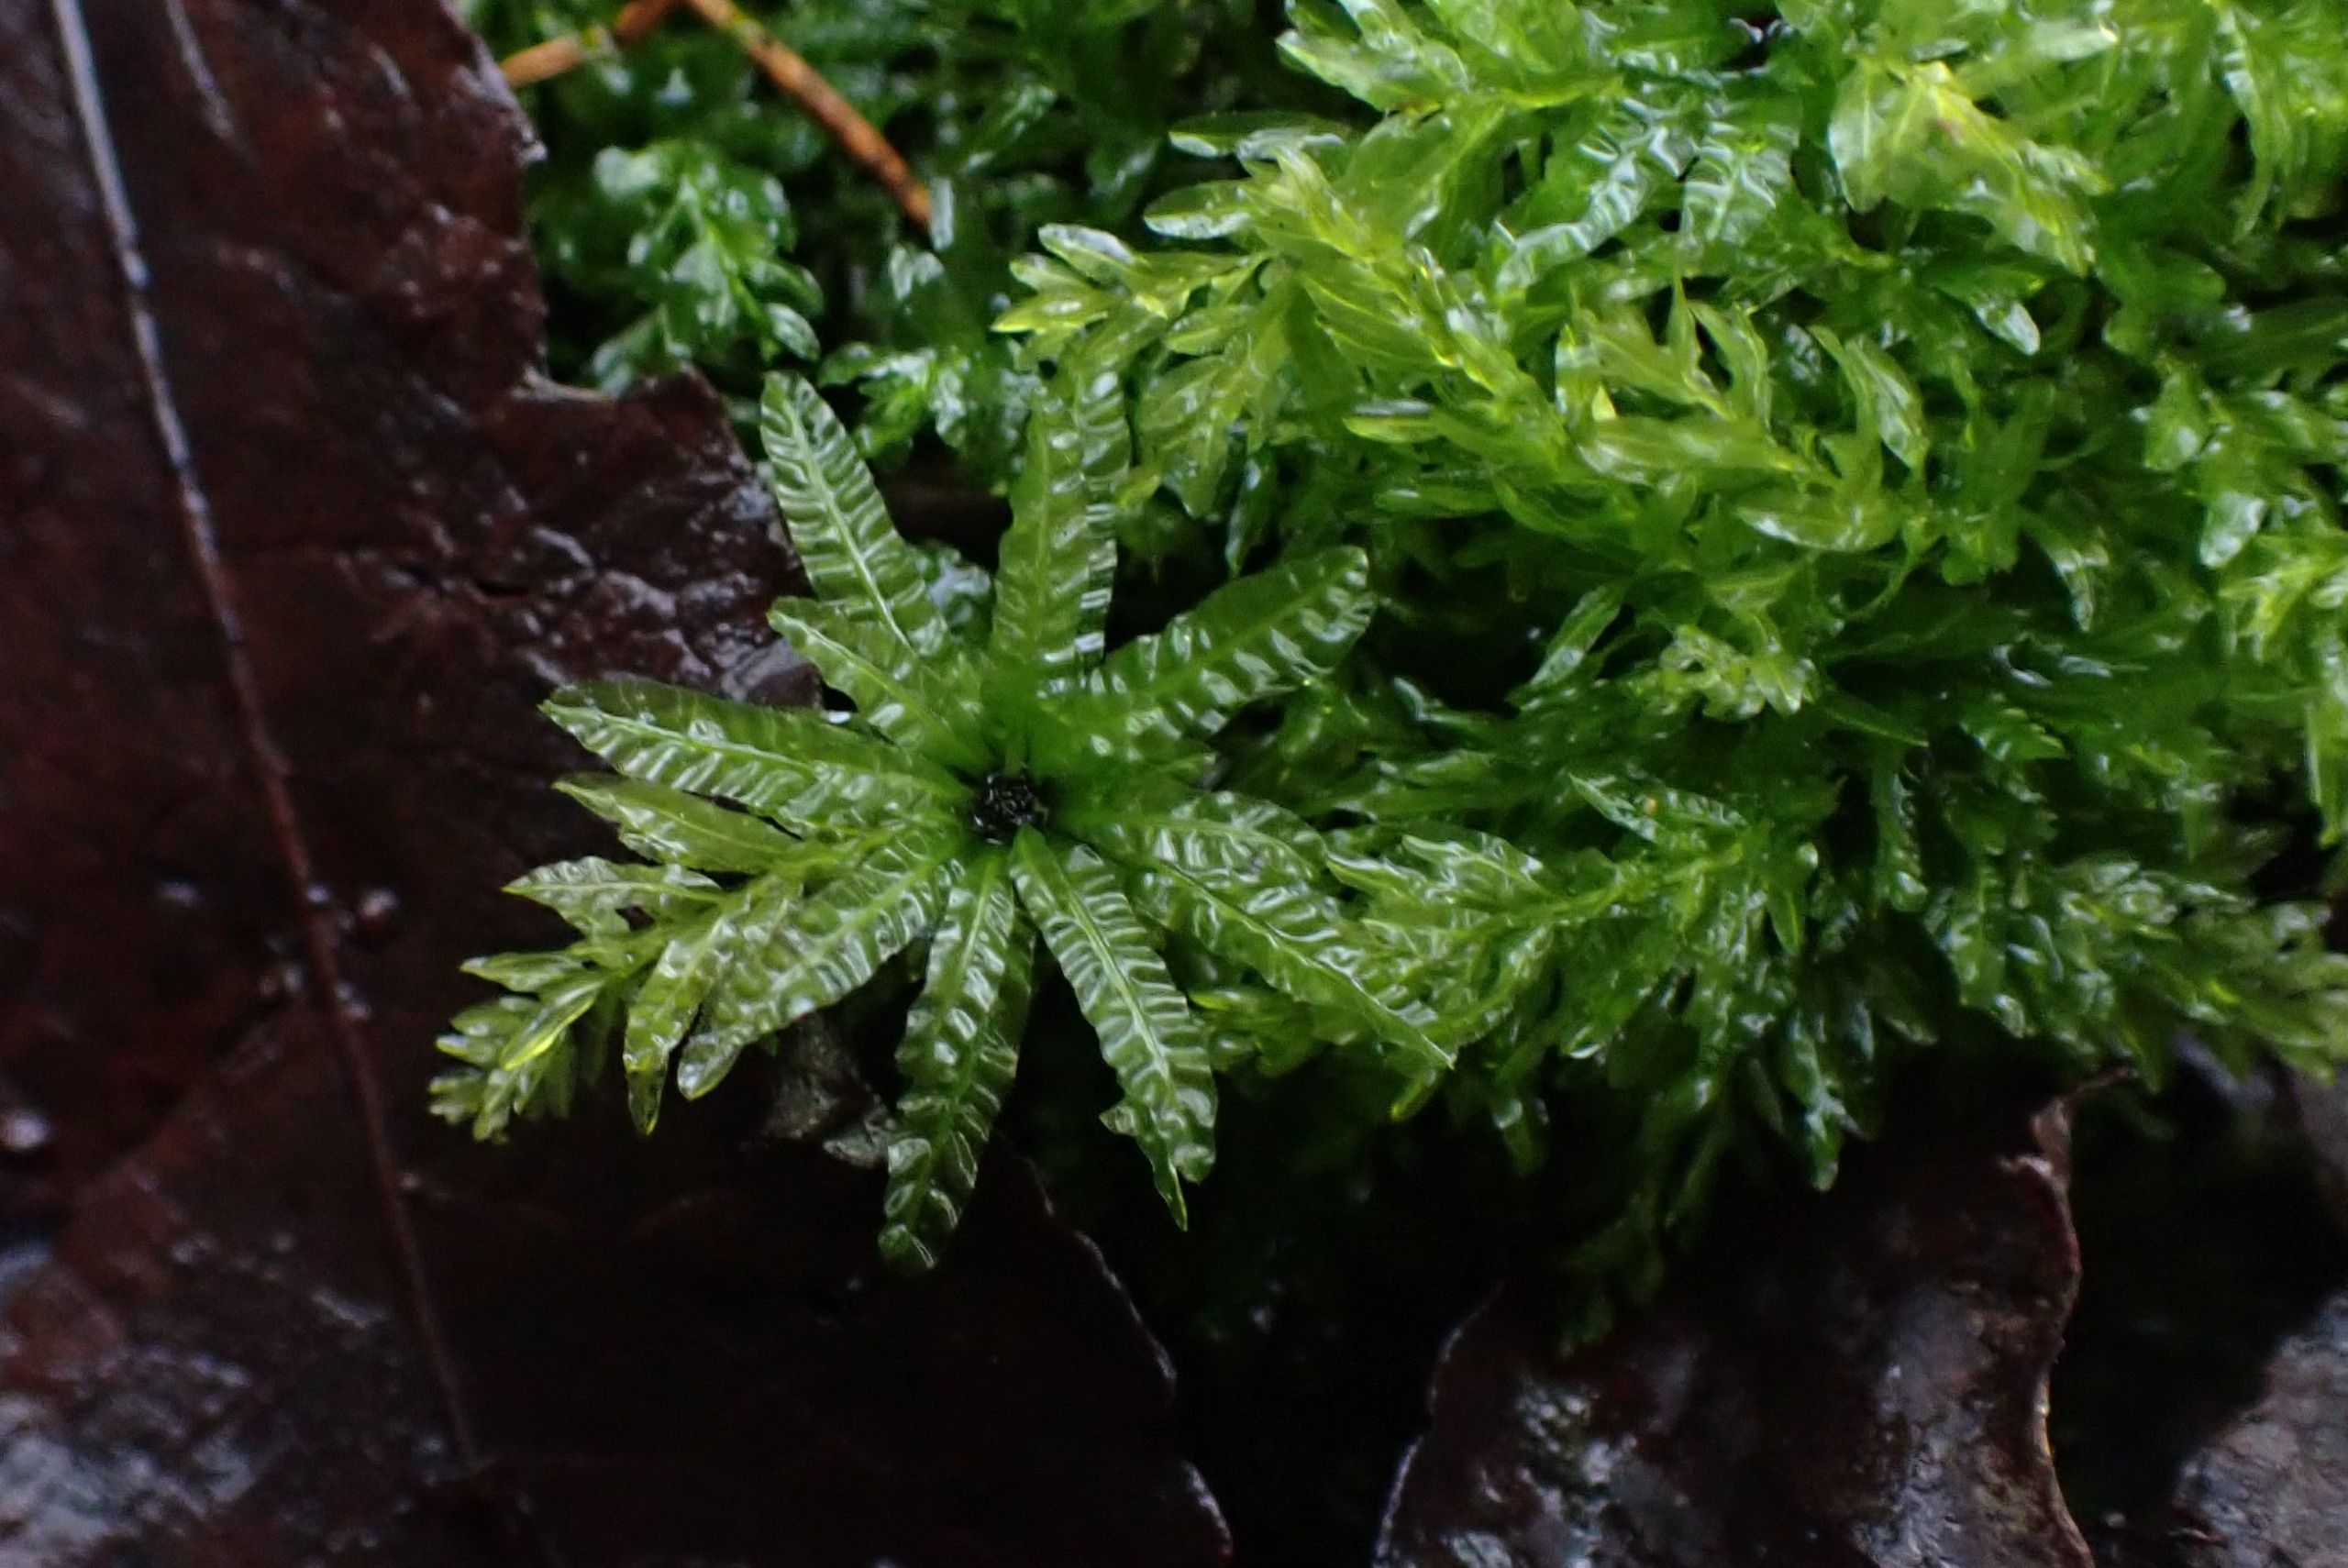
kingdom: Plantae
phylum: Bryophyta
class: Bryopsida
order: Bryales
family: Mniaceae
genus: Plagiomnium
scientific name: Plagiomnium undulatum
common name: Bølget krybstjerne
